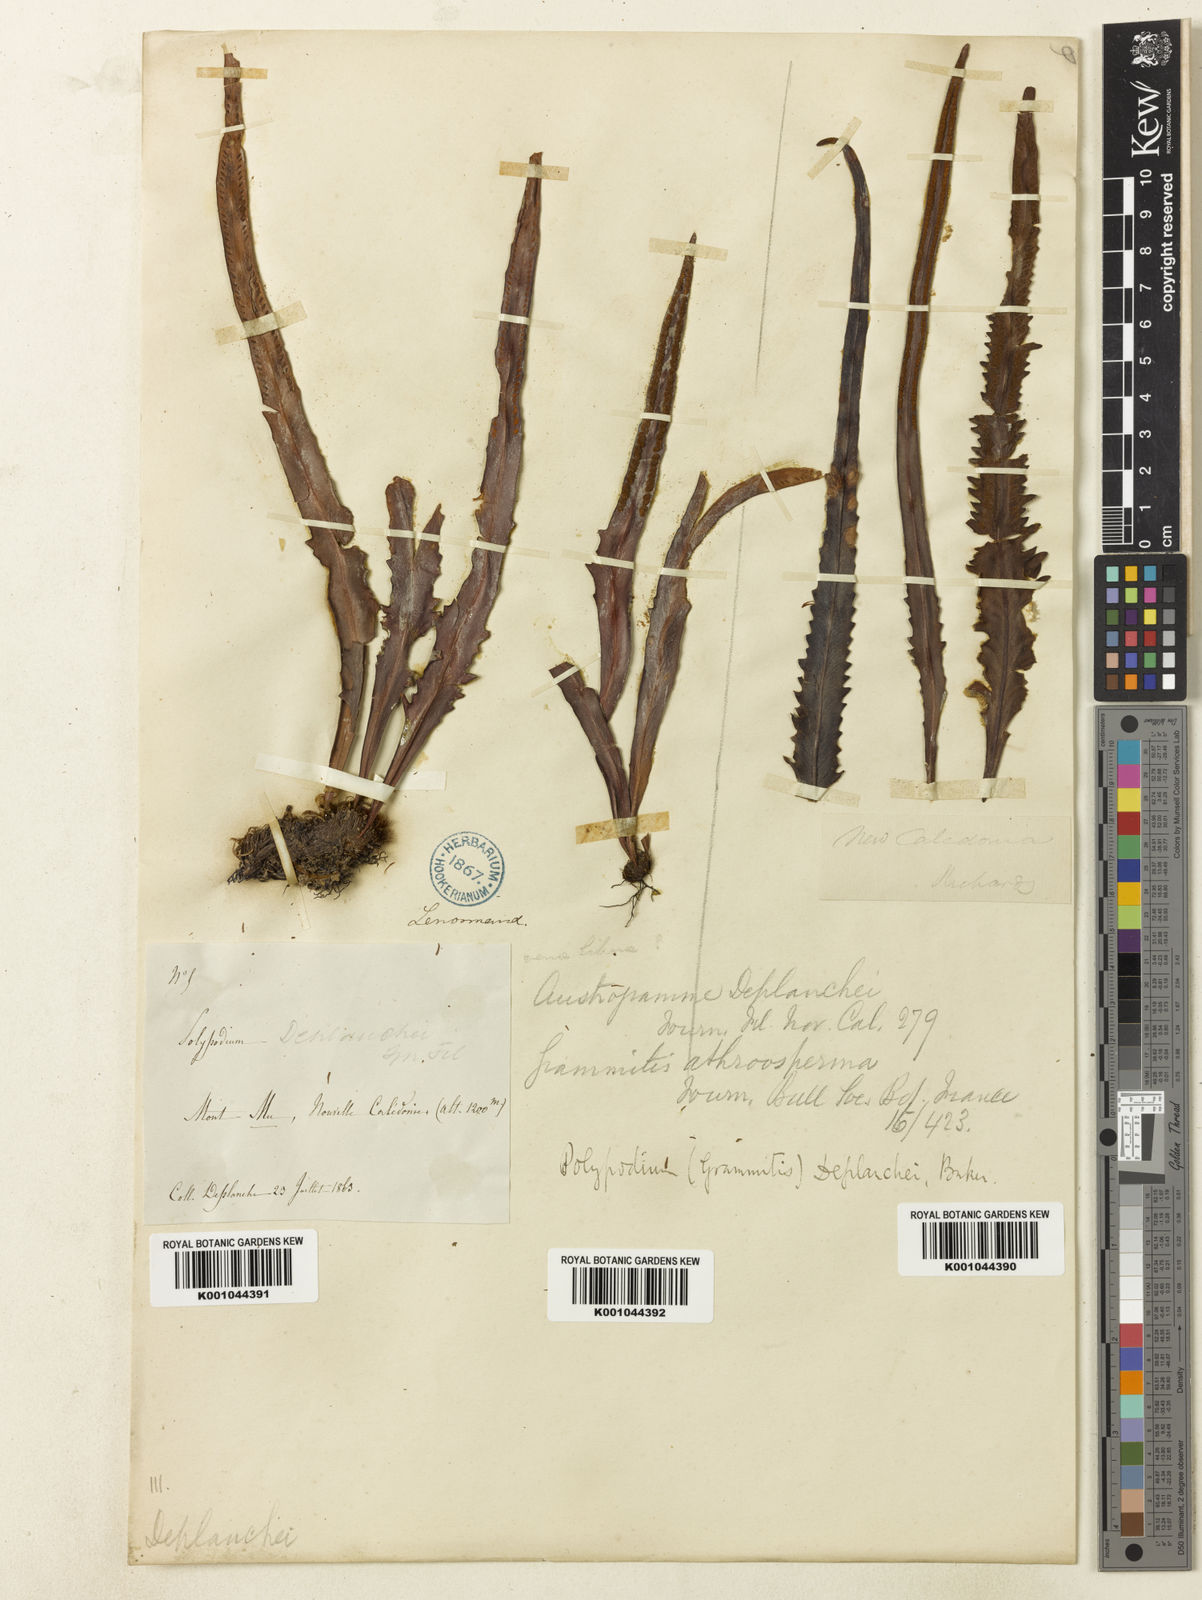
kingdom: Plantae
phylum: Tracheophyta
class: Polypodiopsida
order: Polypodiales
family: Polypodiaceae
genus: Grammitis
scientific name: Grammitis deplanchei
